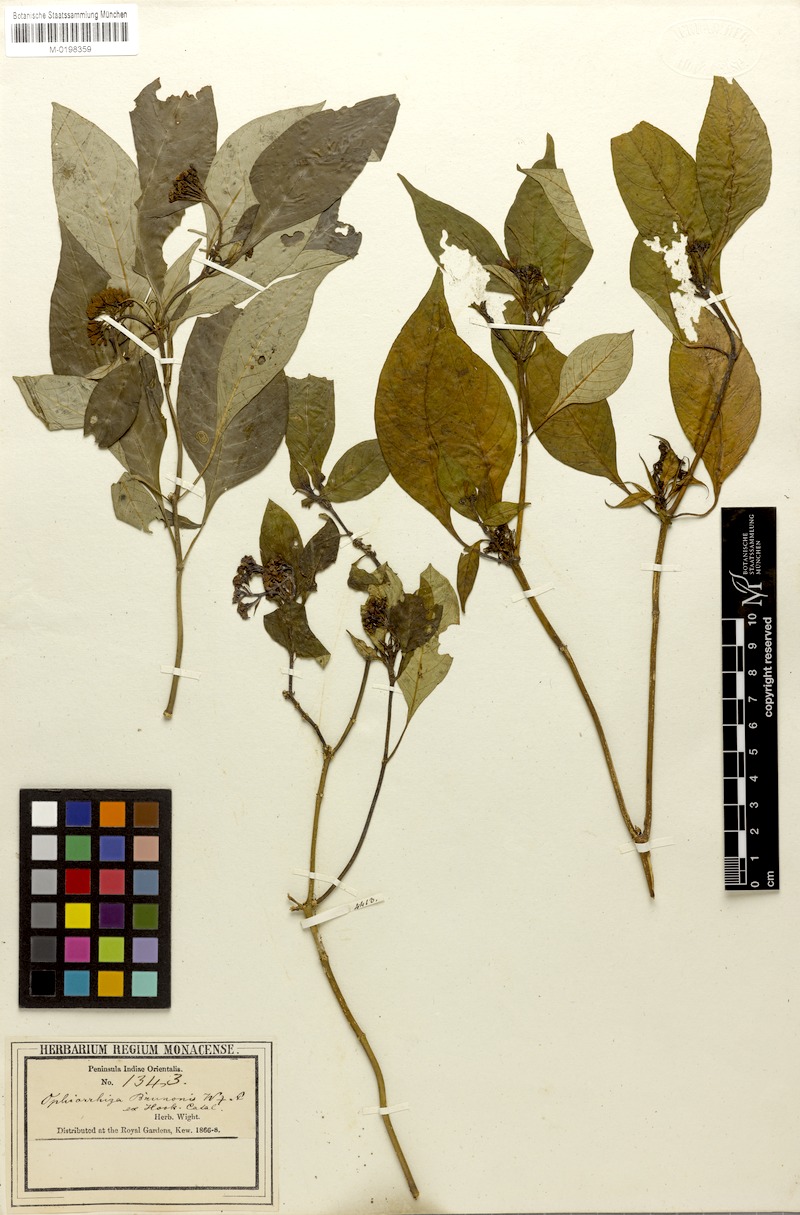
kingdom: Plantae
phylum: Tracheophyta
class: Magnoliopsida
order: Gentianales
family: Rubiaceae
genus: Ophiorrhiza
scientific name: Ophiorrhiza brunonis
